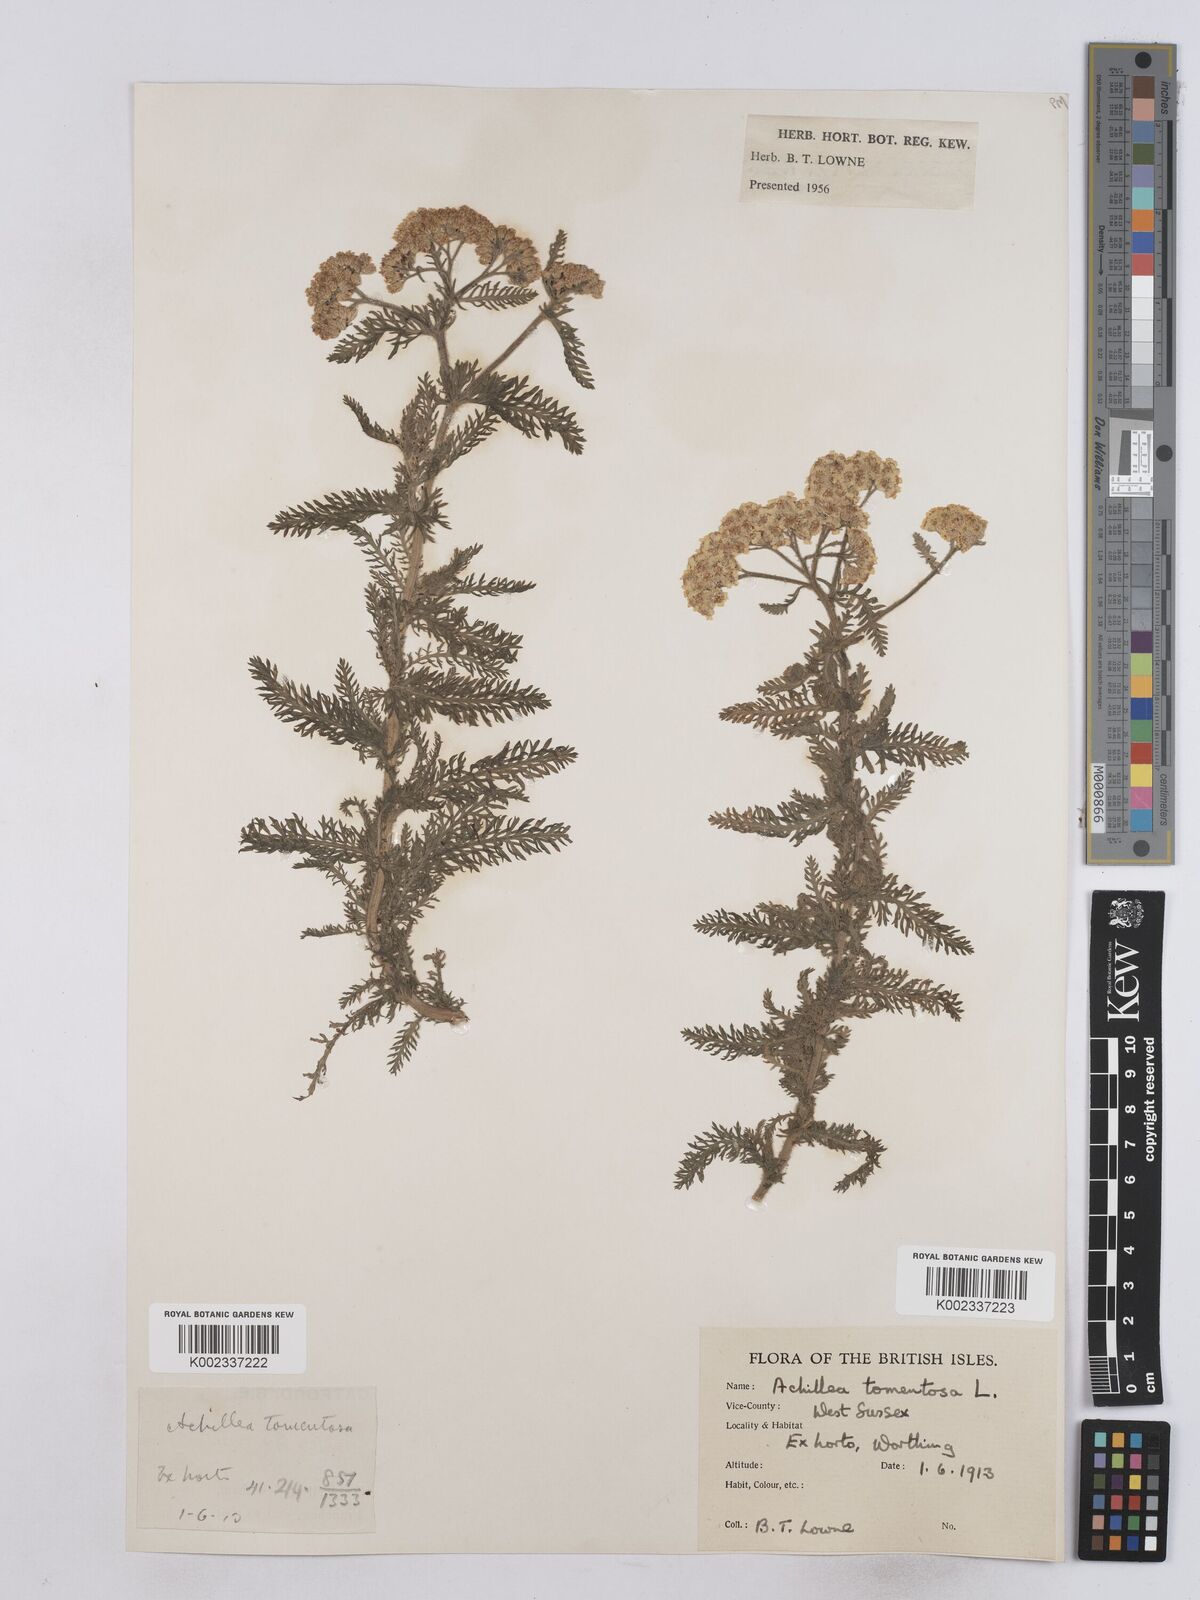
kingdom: Plantae
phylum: Tracheophyta
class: Magnoliopsida
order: Asterales
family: Asteraceae
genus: Achillea
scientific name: Achillea tomentosa
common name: Yellow milfoil
